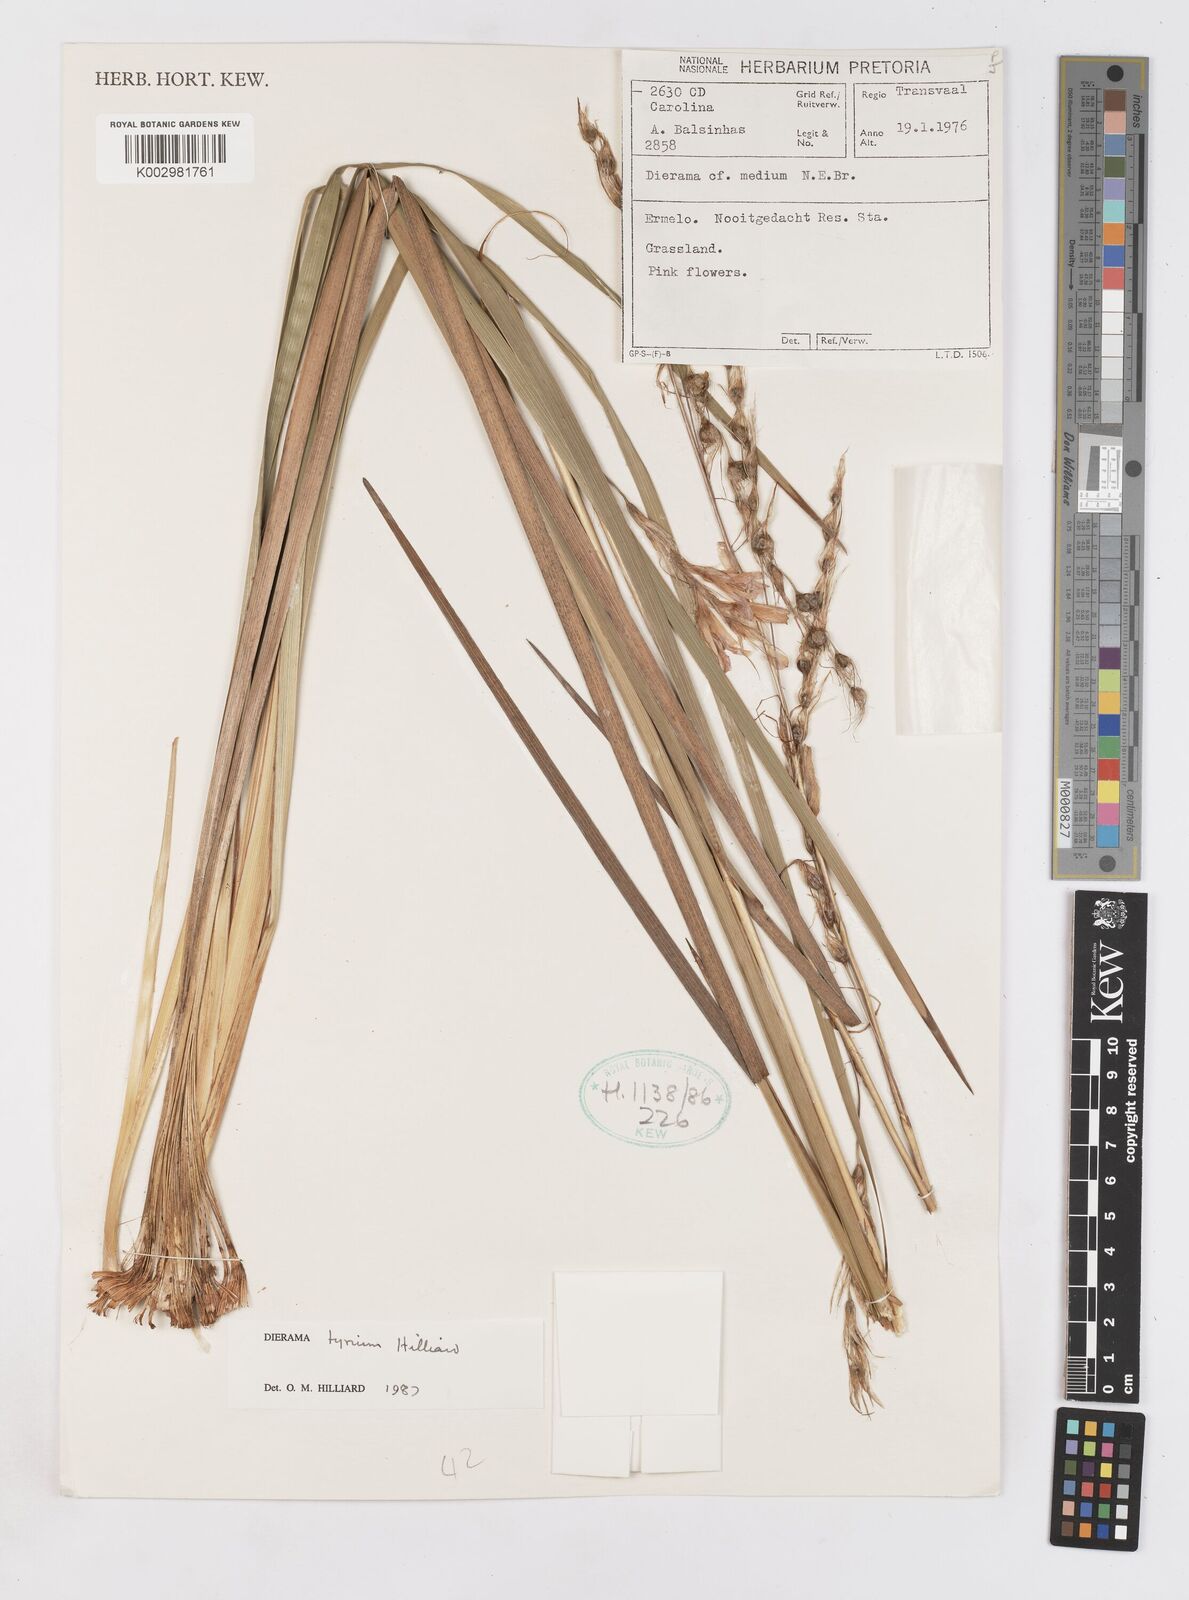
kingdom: Plantae
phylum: Tracheophyta
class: Liliopsida
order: Asparagales
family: Iridaceae
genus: Dierama
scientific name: Dierama tyrium
